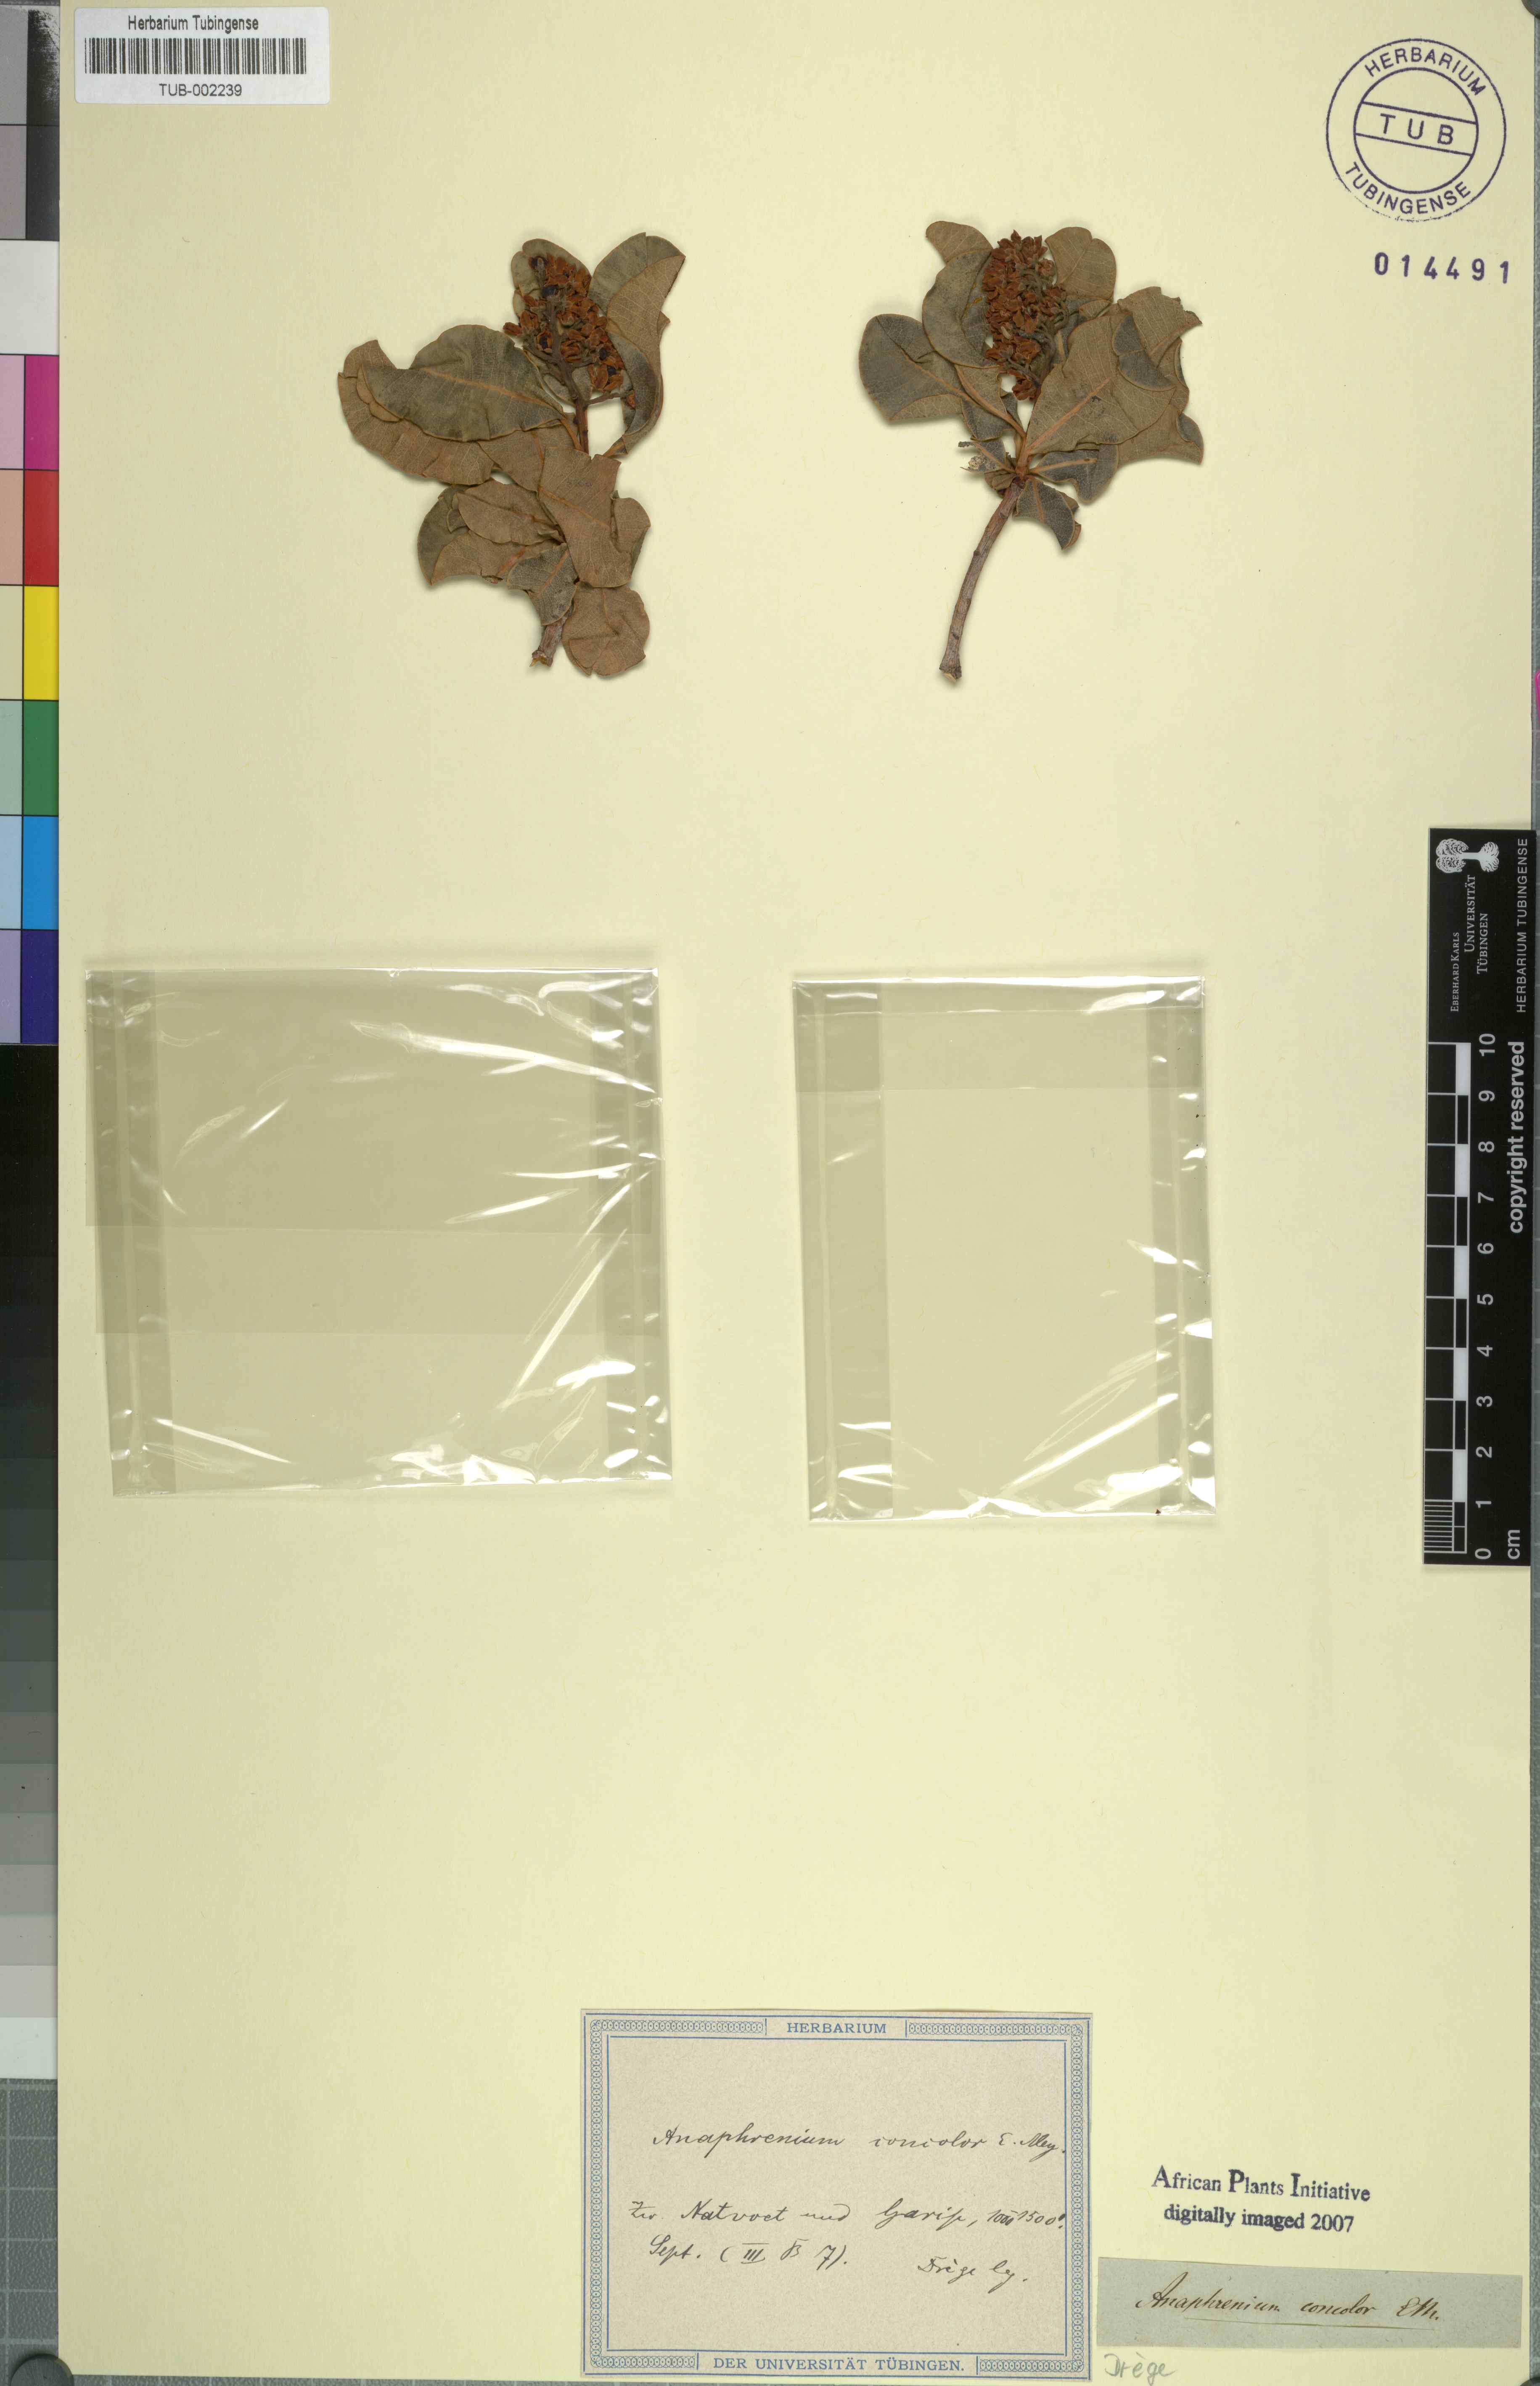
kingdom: Plantae
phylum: Tracheophyta
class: Magnoliopsida
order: Sapindales
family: Anacardiaceae
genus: Ozoroa
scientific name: Ozoroa concolor
